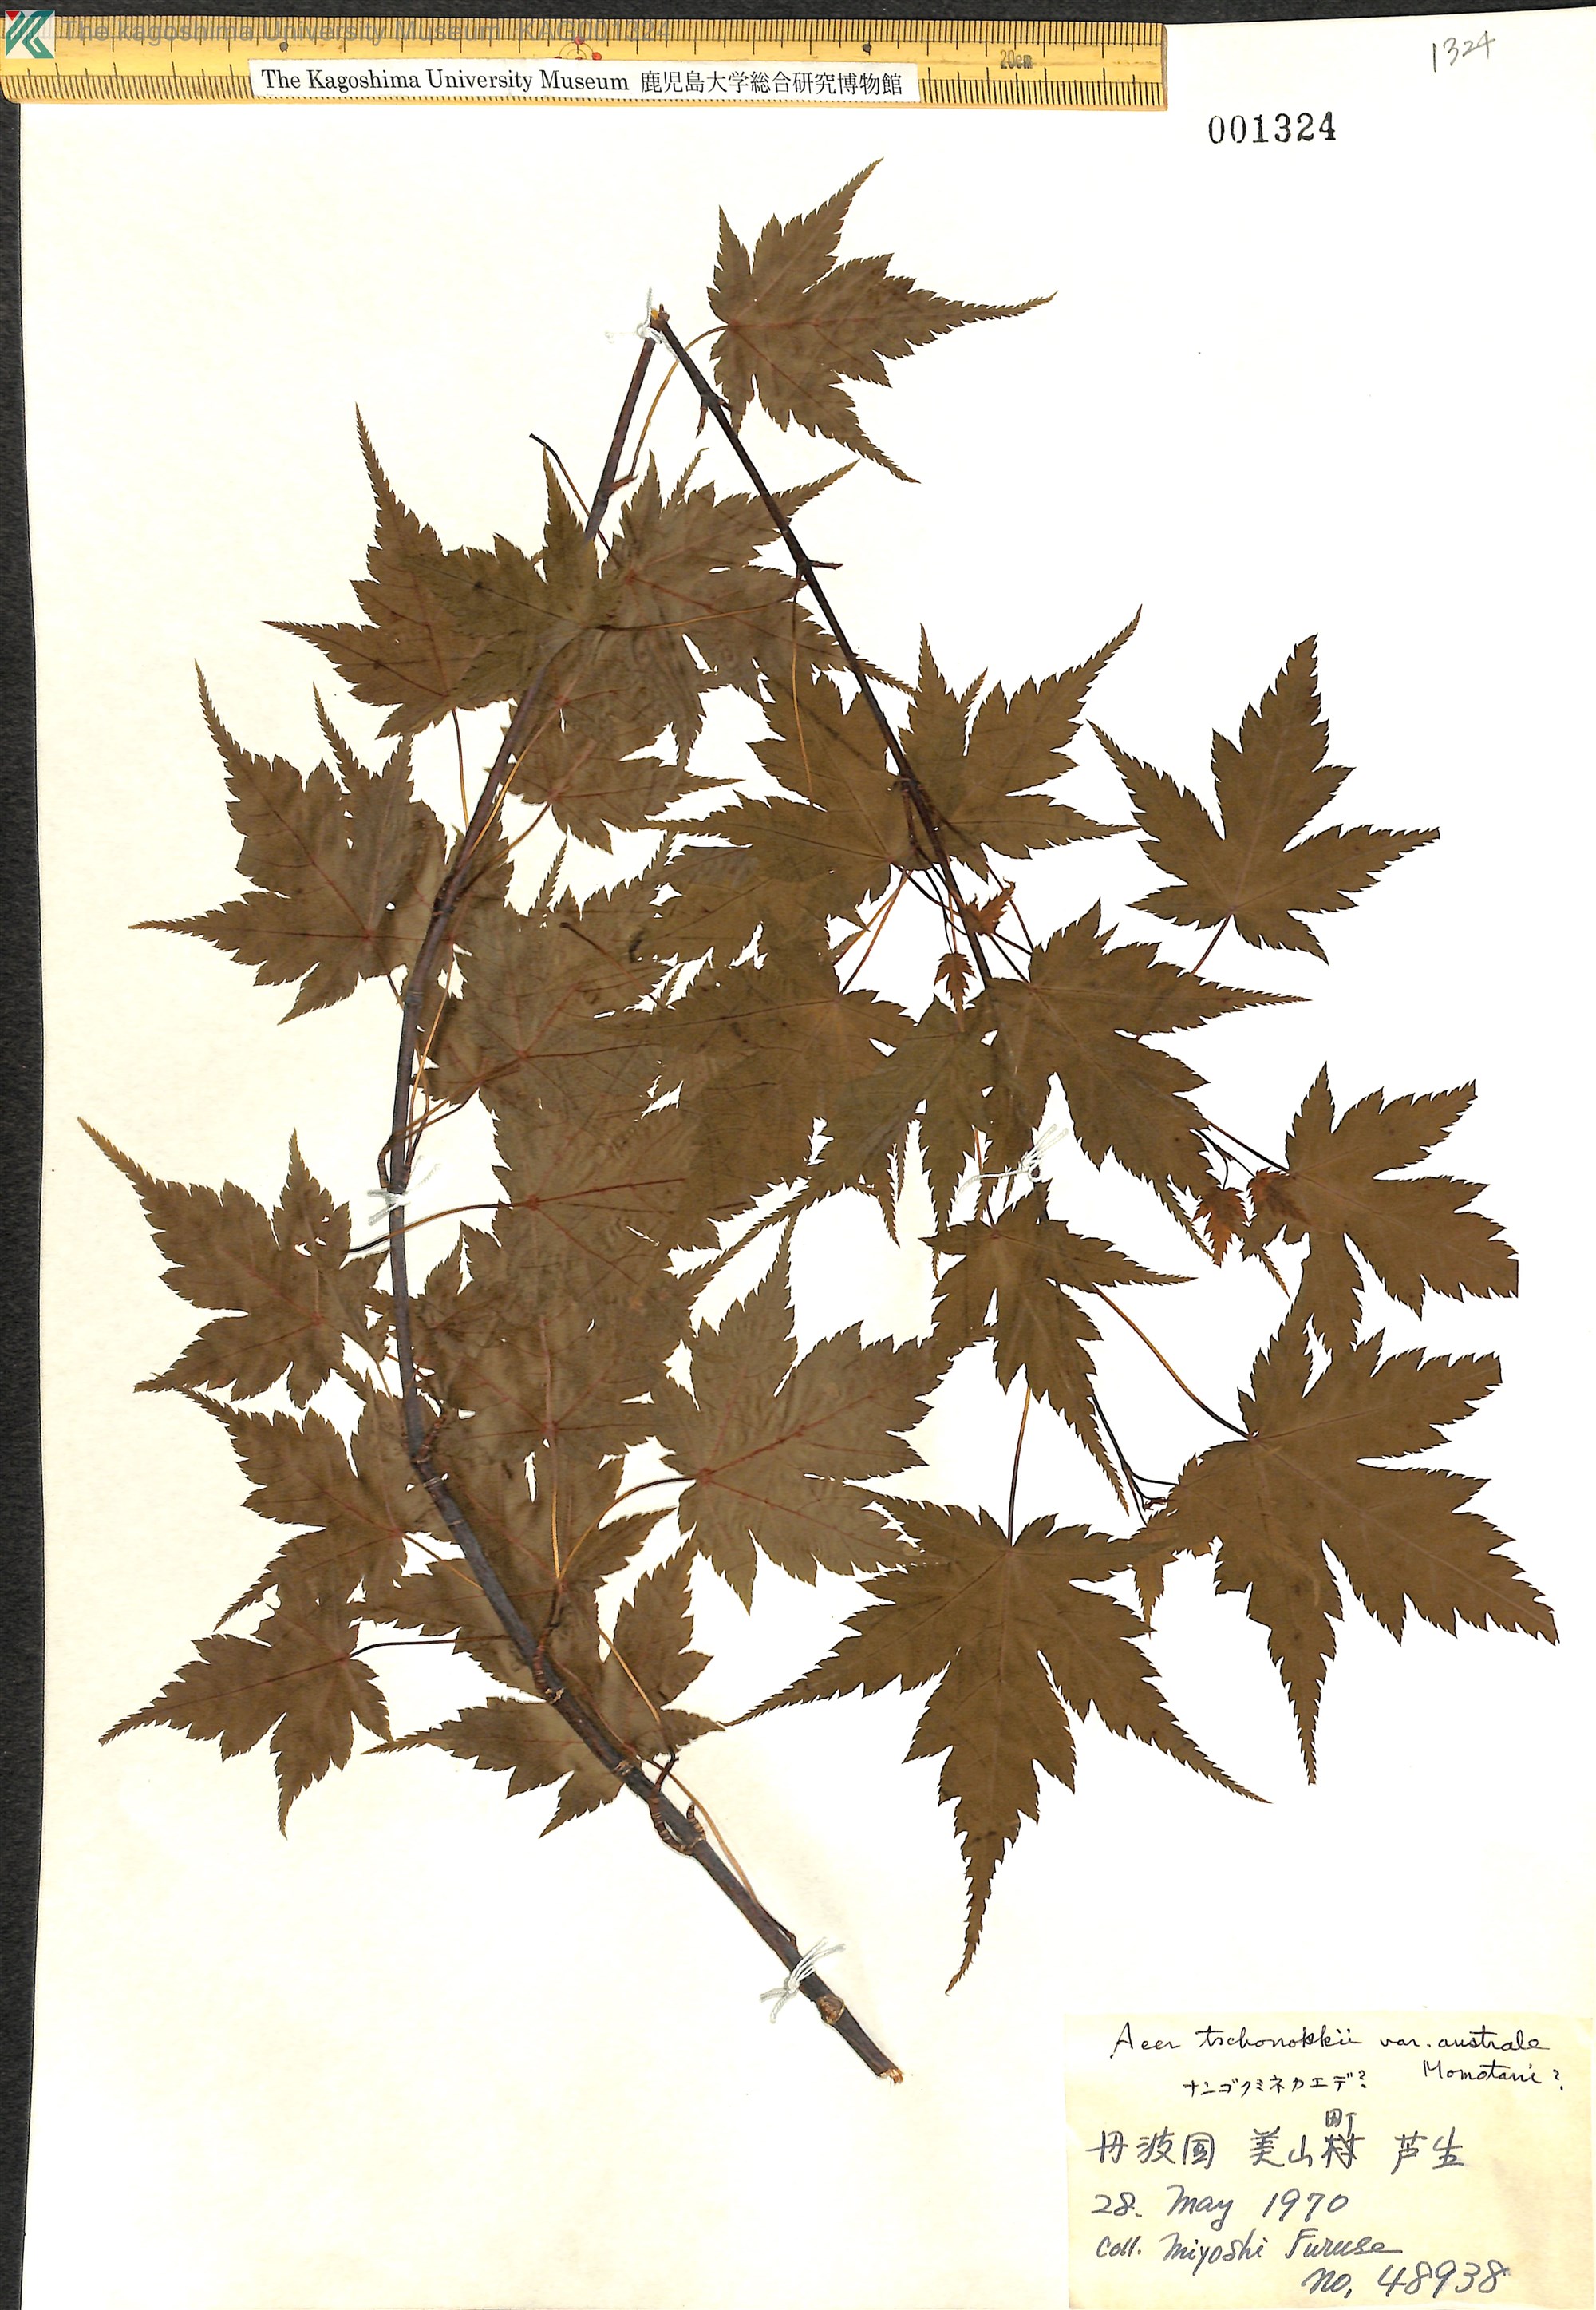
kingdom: Plantae
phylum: Tracheophyta
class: Magnoliopsida
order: Sapindales
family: Sapindaceae
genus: Acer
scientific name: Acer tschonoskii
